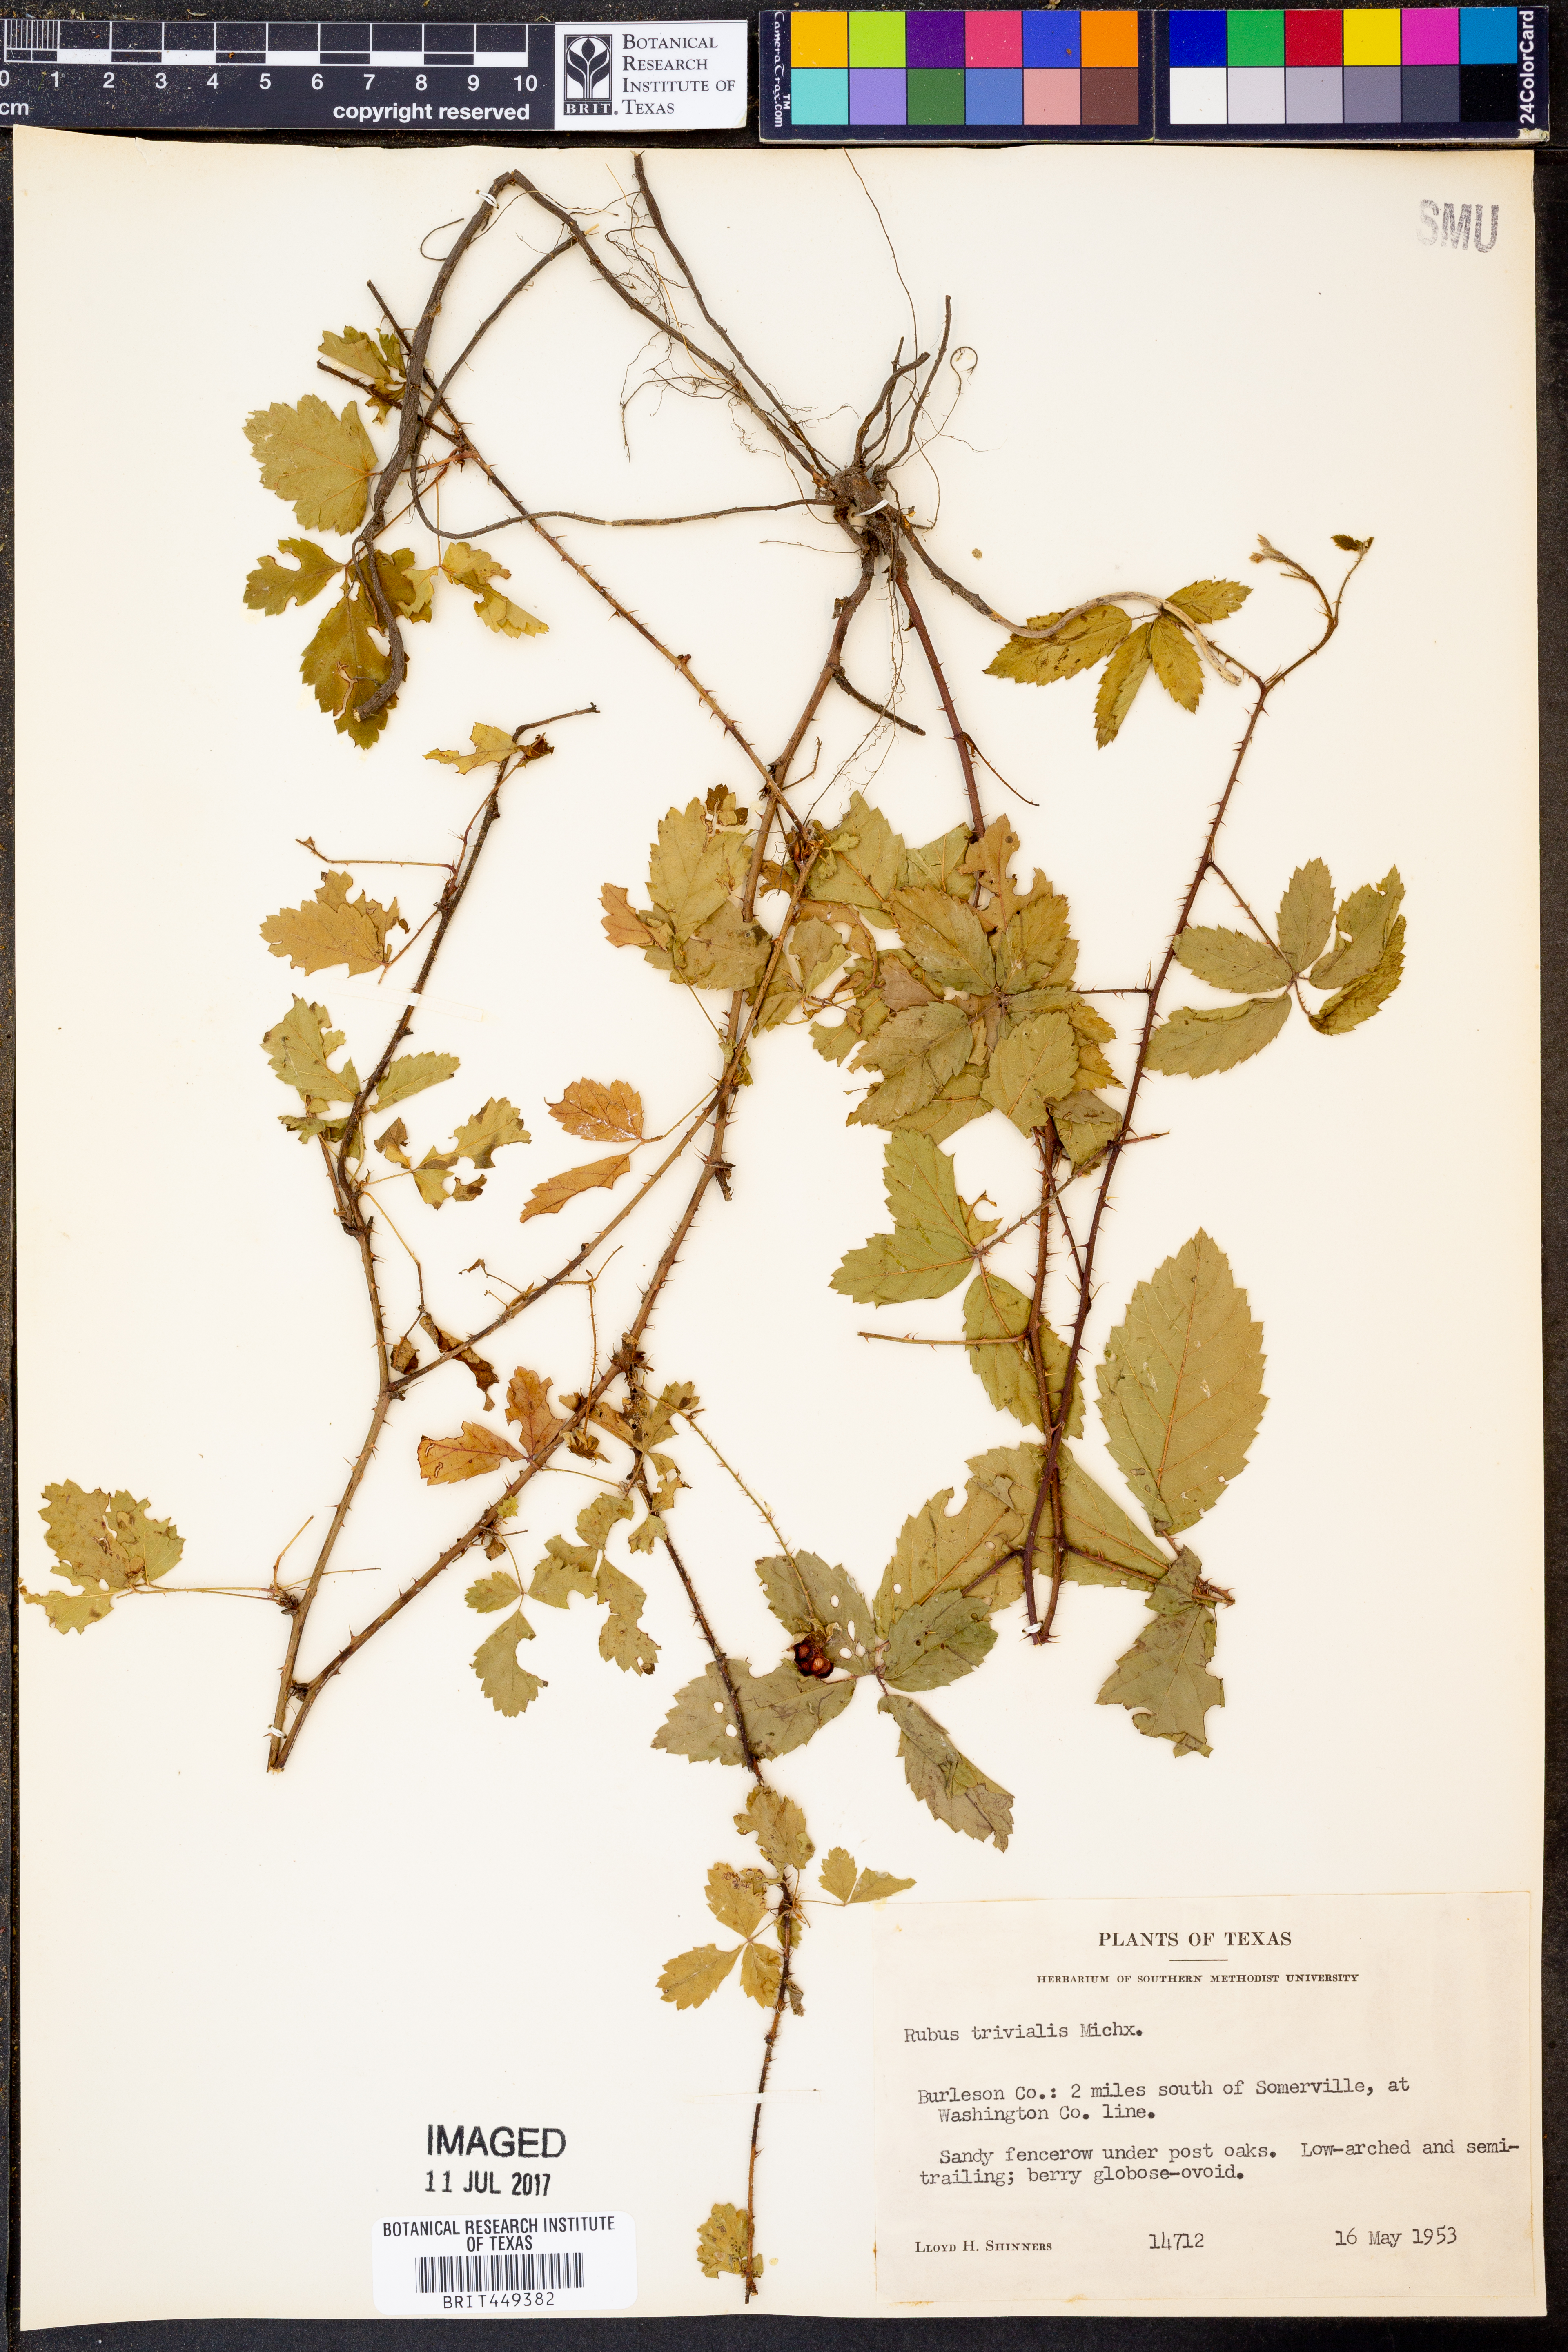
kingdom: Plantae
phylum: Tracheophyta
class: Magnoliopsida
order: Rosales
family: Rosaceae
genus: Rubus
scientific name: Rubus trivialis
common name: Southern dewberry
